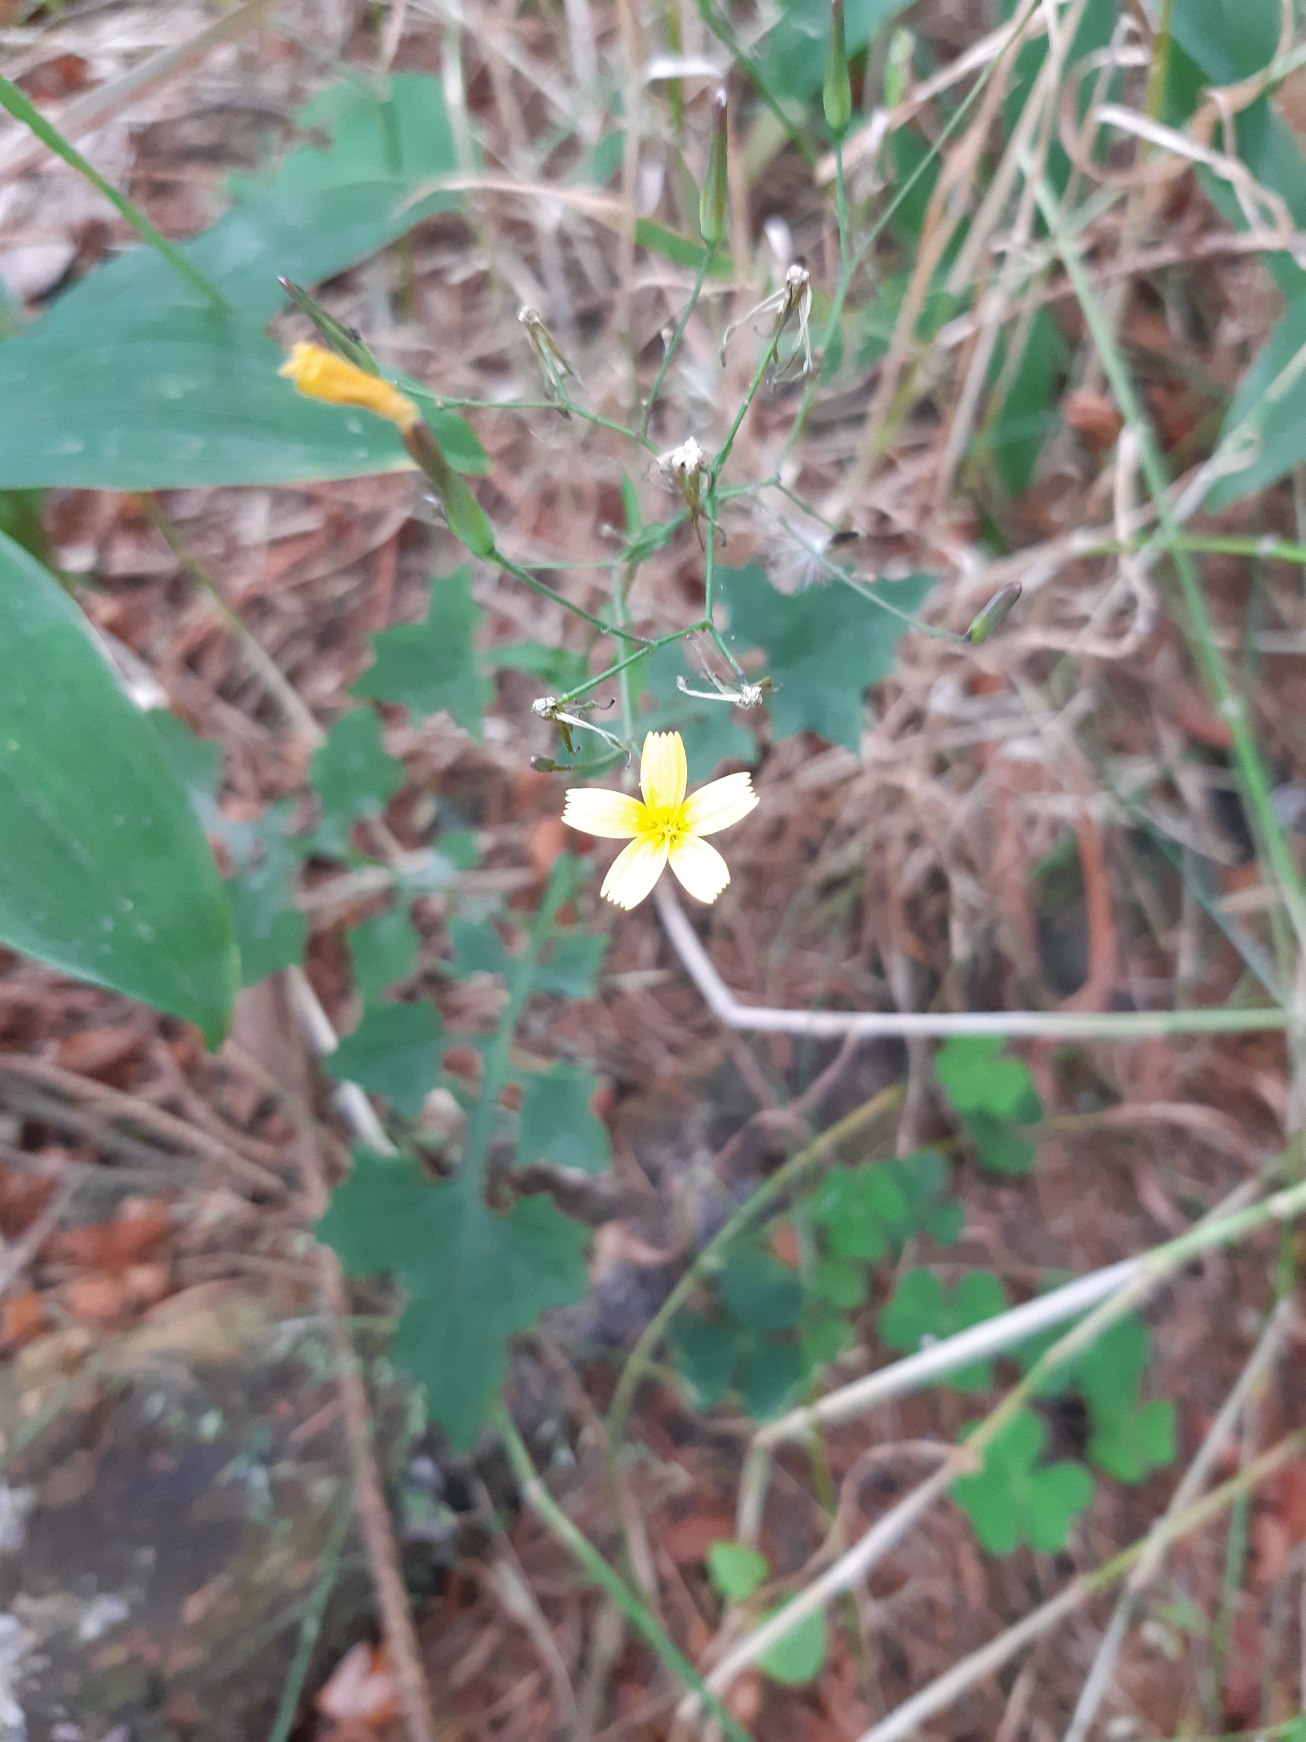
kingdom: Plantae
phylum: Tracheophyta
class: Magnoliopsida
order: Asterales
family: Asteraceae
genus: Mycelis
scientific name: Mycelis muralis
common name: Skov-salat
